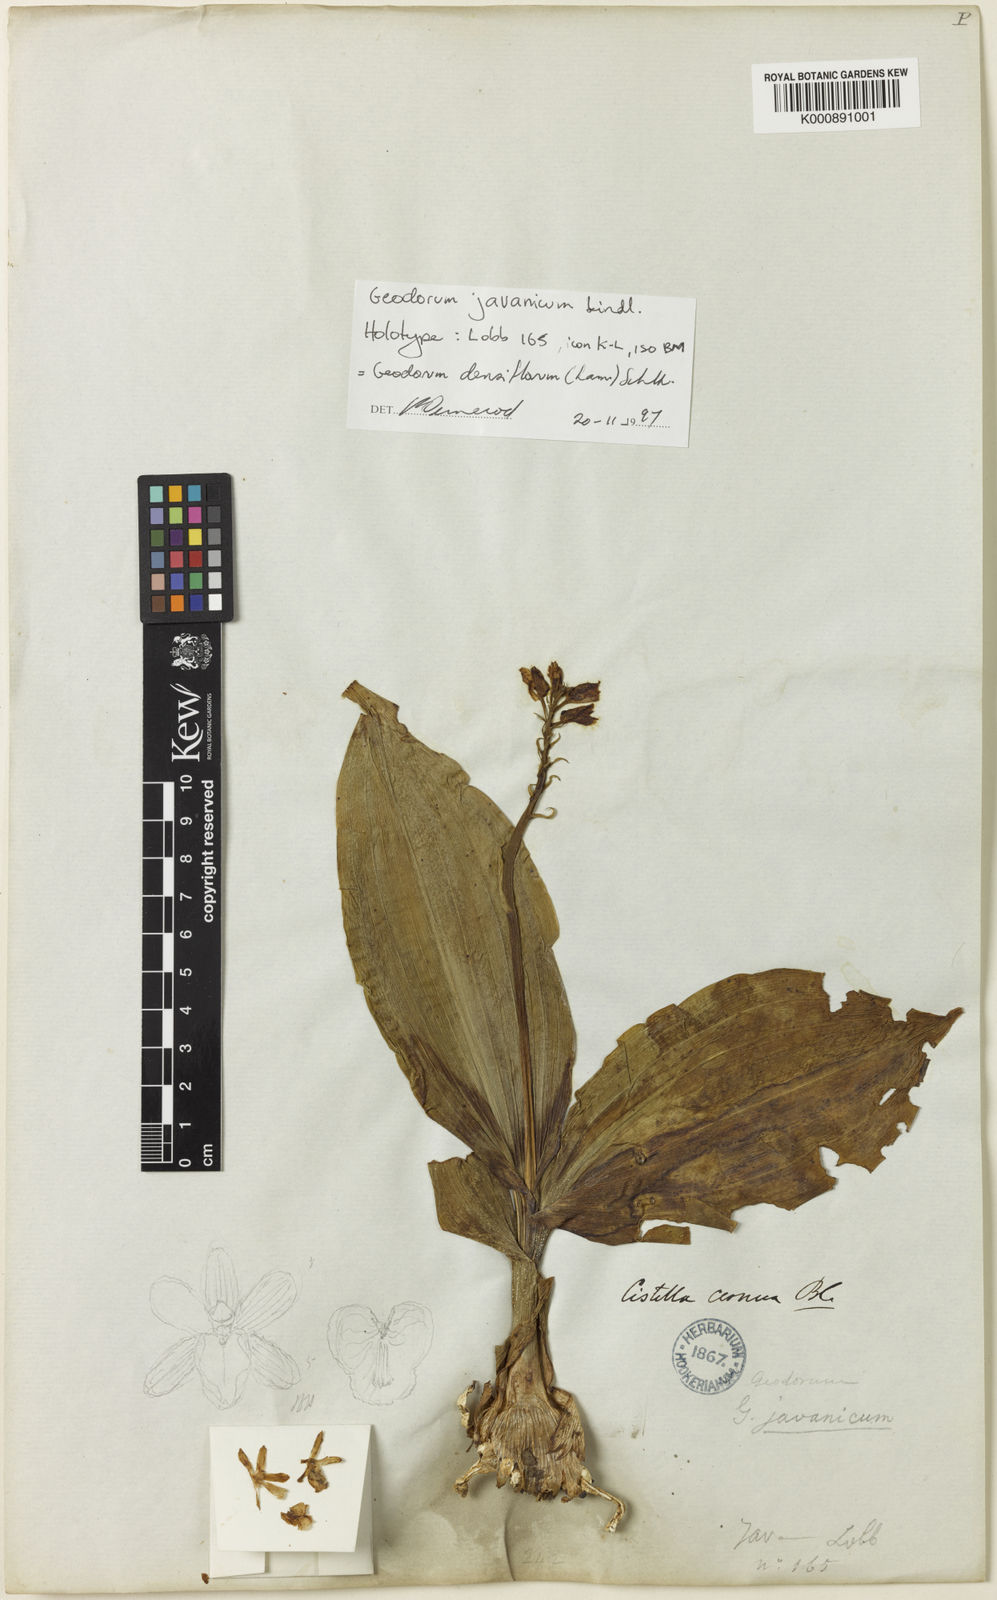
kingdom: Plantae
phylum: Tracheophyta
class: Liliopsida
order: Asparagales
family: Orchidaceae
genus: Eulophia
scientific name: Eulophia cernua
